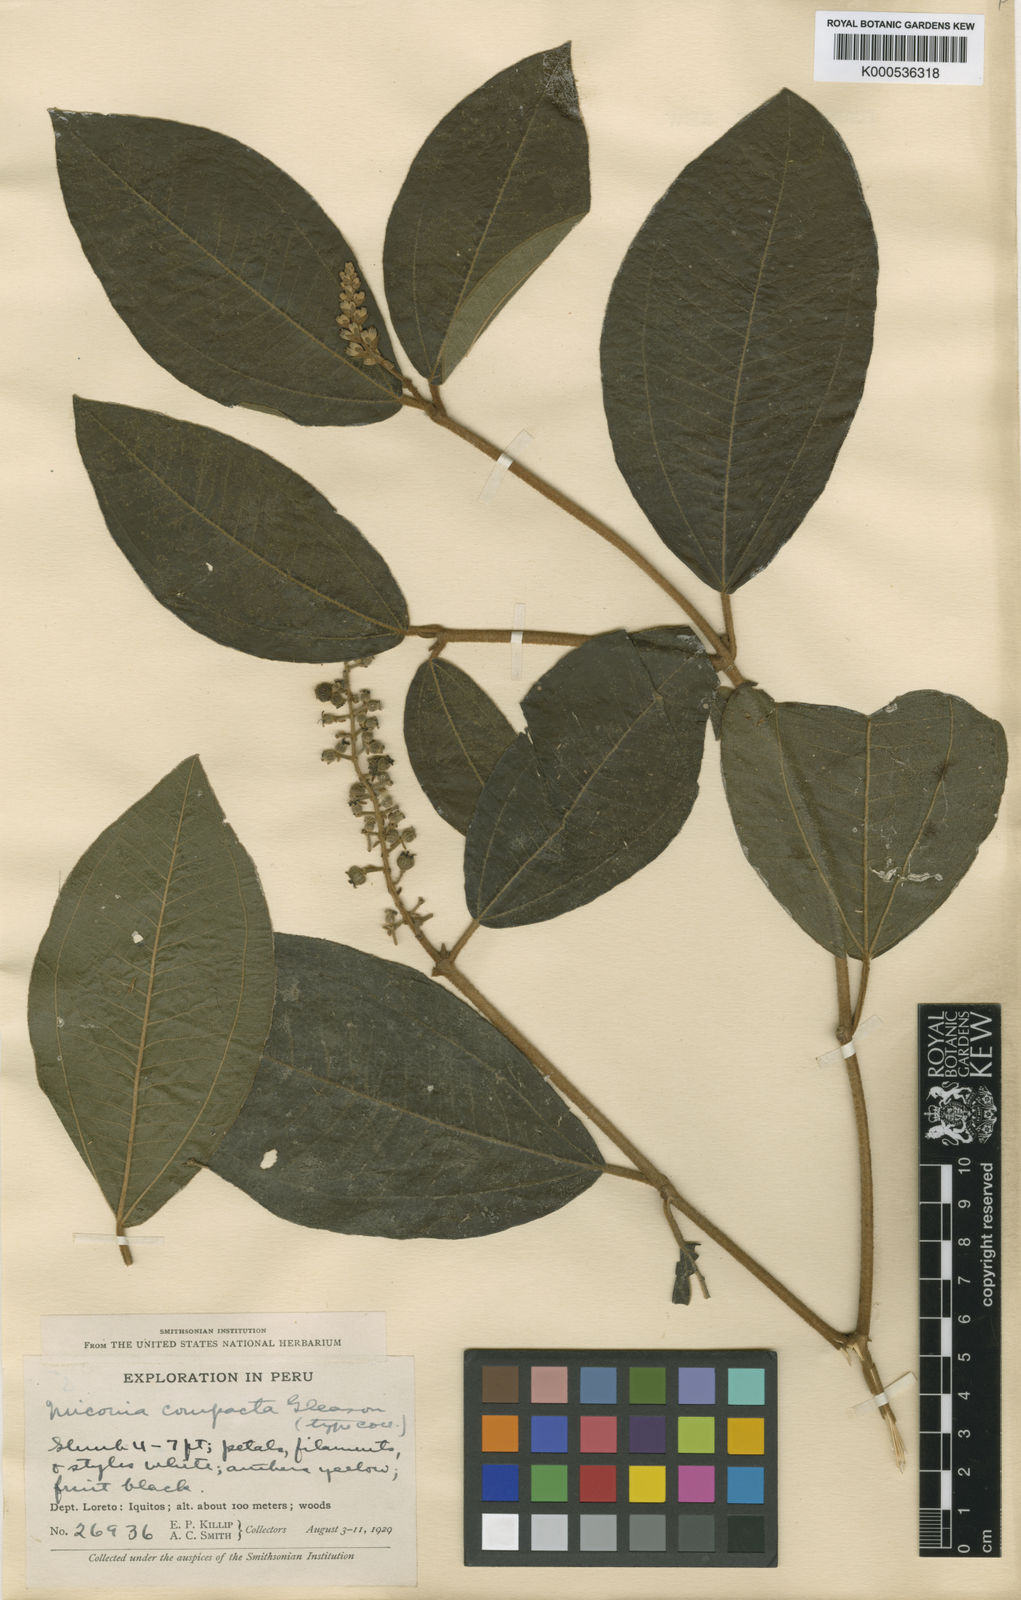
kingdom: Plantae
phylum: Tracheophyta
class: Magnoliopsida
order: Myrtales
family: Melastomataceae
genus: Miconia
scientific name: Miconia carassana
